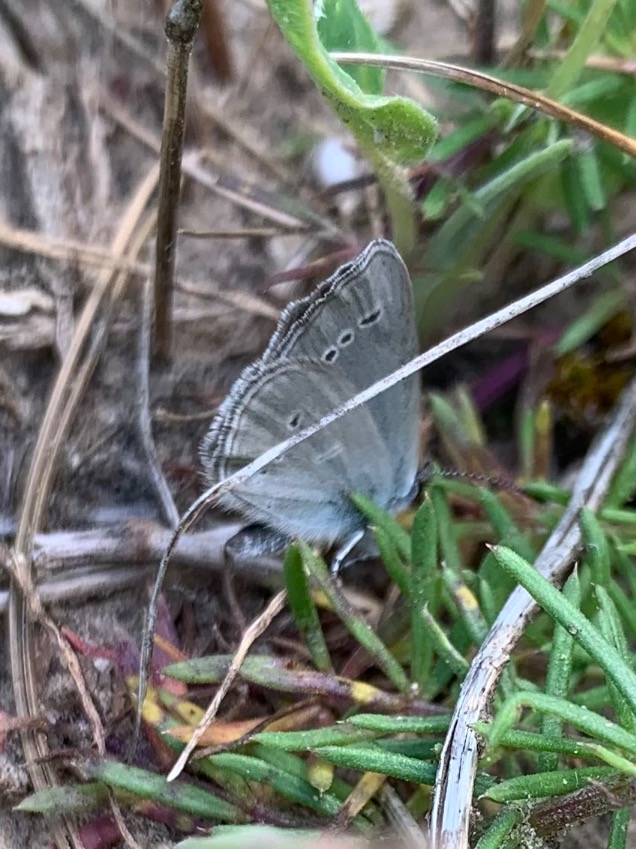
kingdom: Animalia
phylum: Arthropoda
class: Insecta
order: Lepidoptera
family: Lycaenidae
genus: Cupido
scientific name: Cupido minimus
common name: Dværgblåfugl
